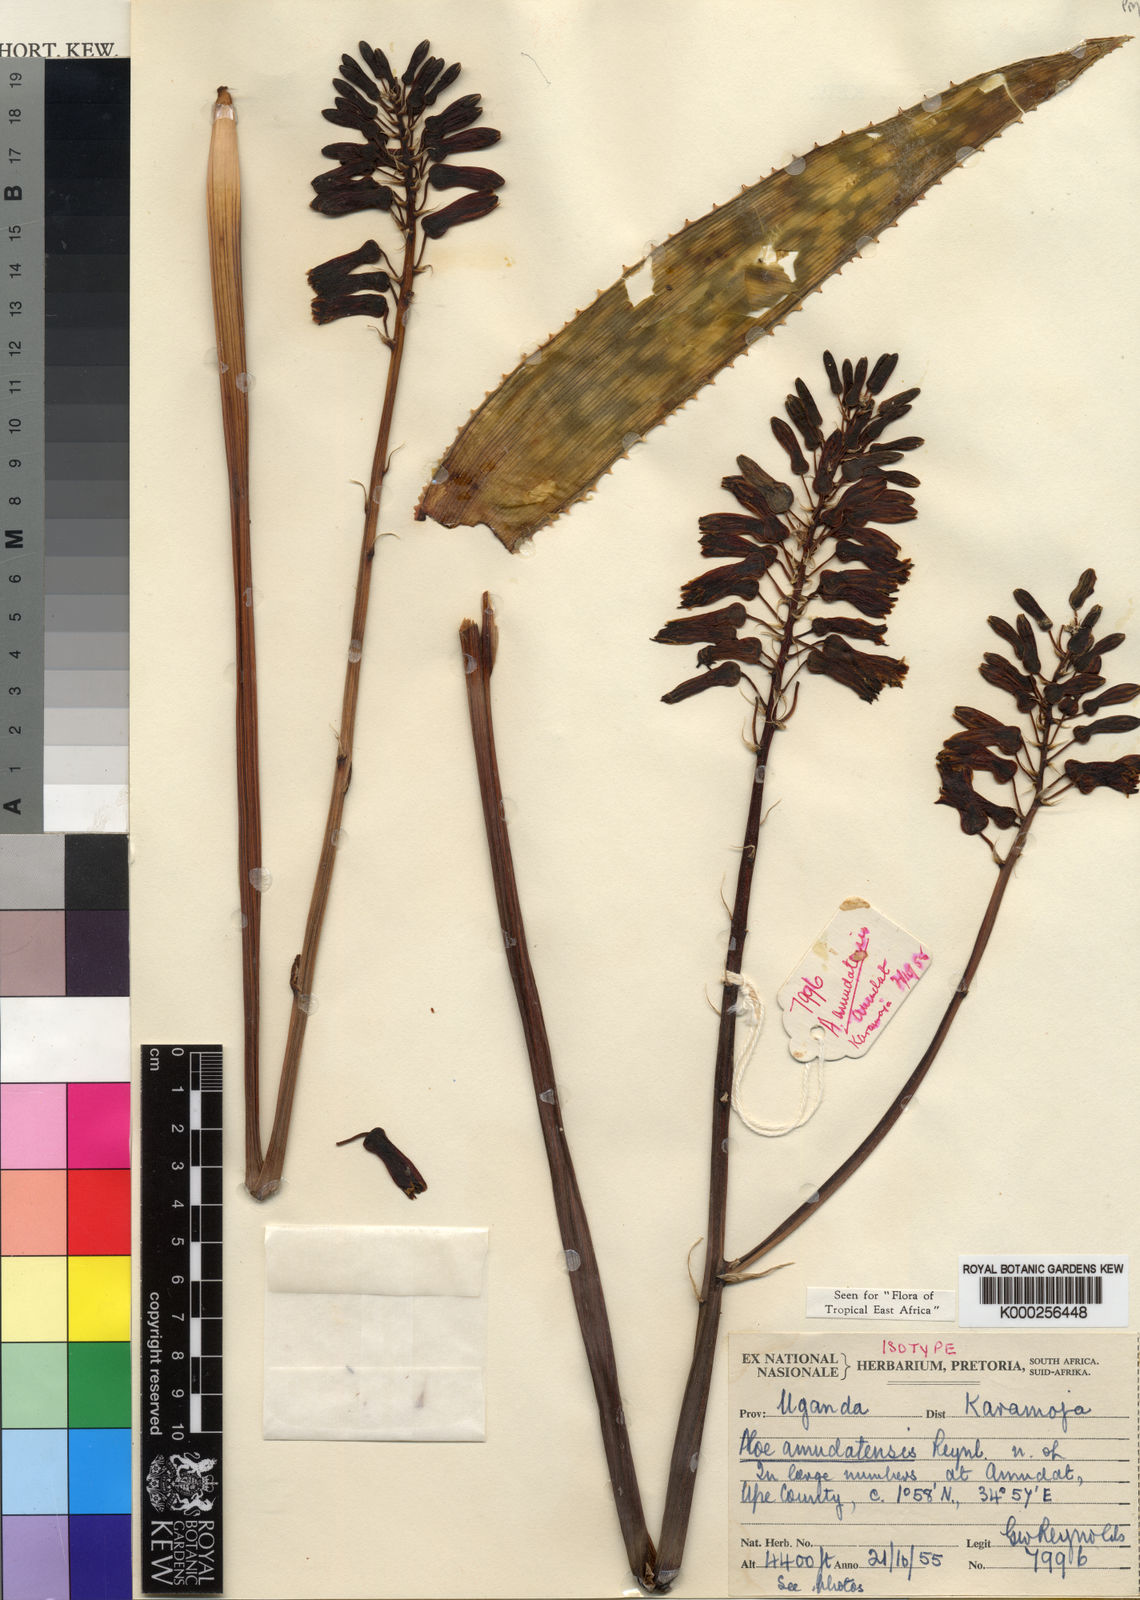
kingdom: Plantae
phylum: Tracheophyta
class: Liliopsida
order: Asparagales
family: Asphodelaceae
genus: Aloe
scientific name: Aloe amudatensis
